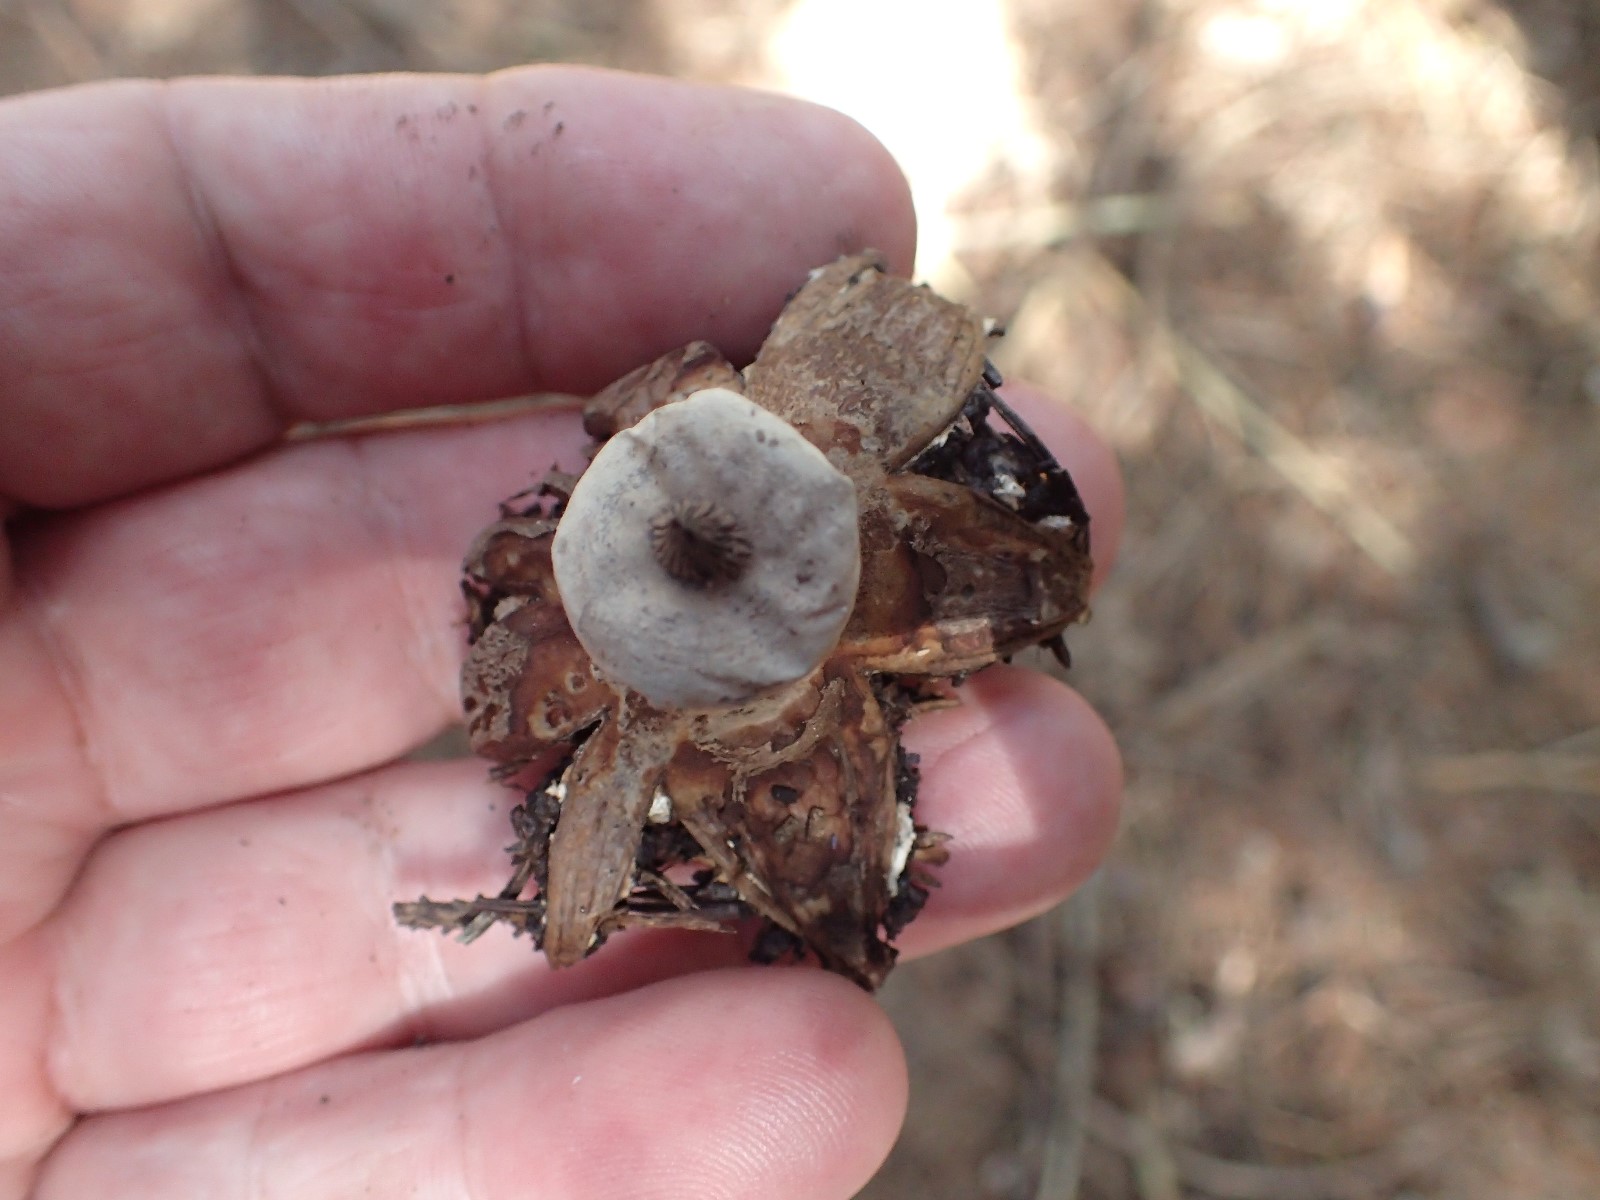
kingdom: Fungi
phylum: Basidiomycota
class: Agaricomycetes
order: Geastrales
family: Geastraceae
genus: Geastrum
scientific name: Geastrum striatum
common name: krave-stjernebold
